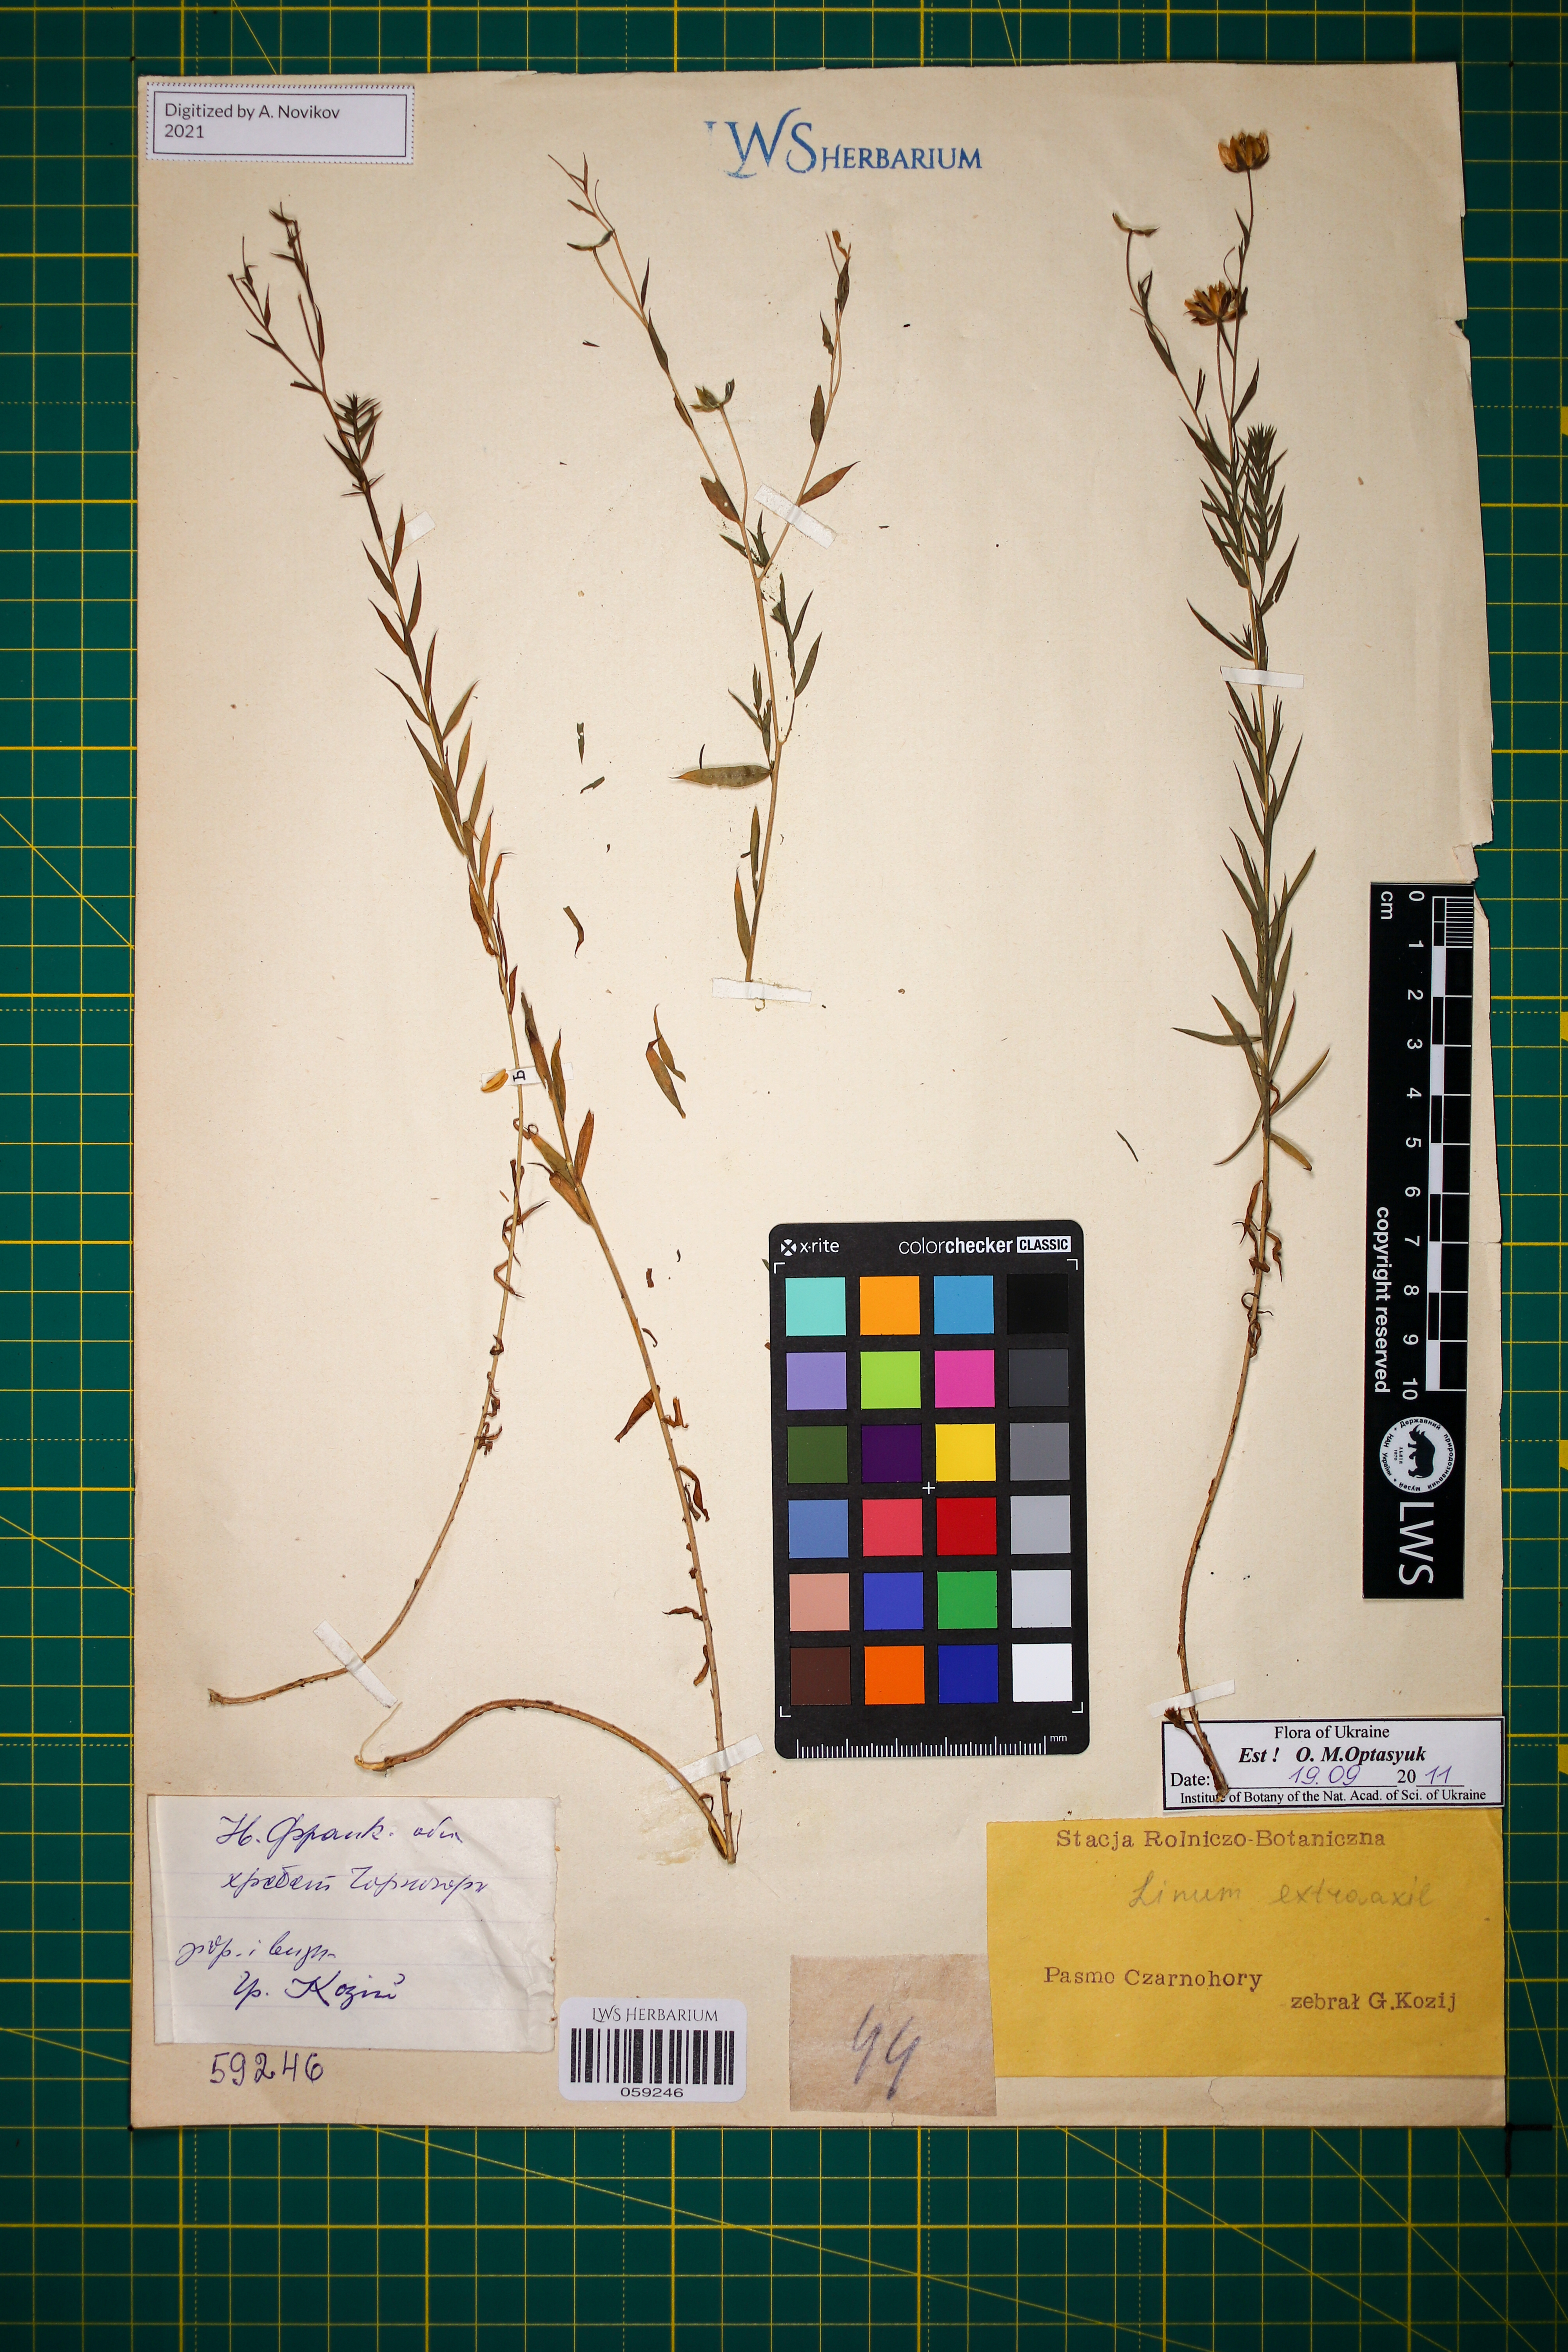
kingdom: Plantae
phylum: Tracheophyta
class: Magnoliopsida
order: Malpighiales
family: Linaceae
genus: Linum
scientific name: Linum perenne
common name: Blue flax
